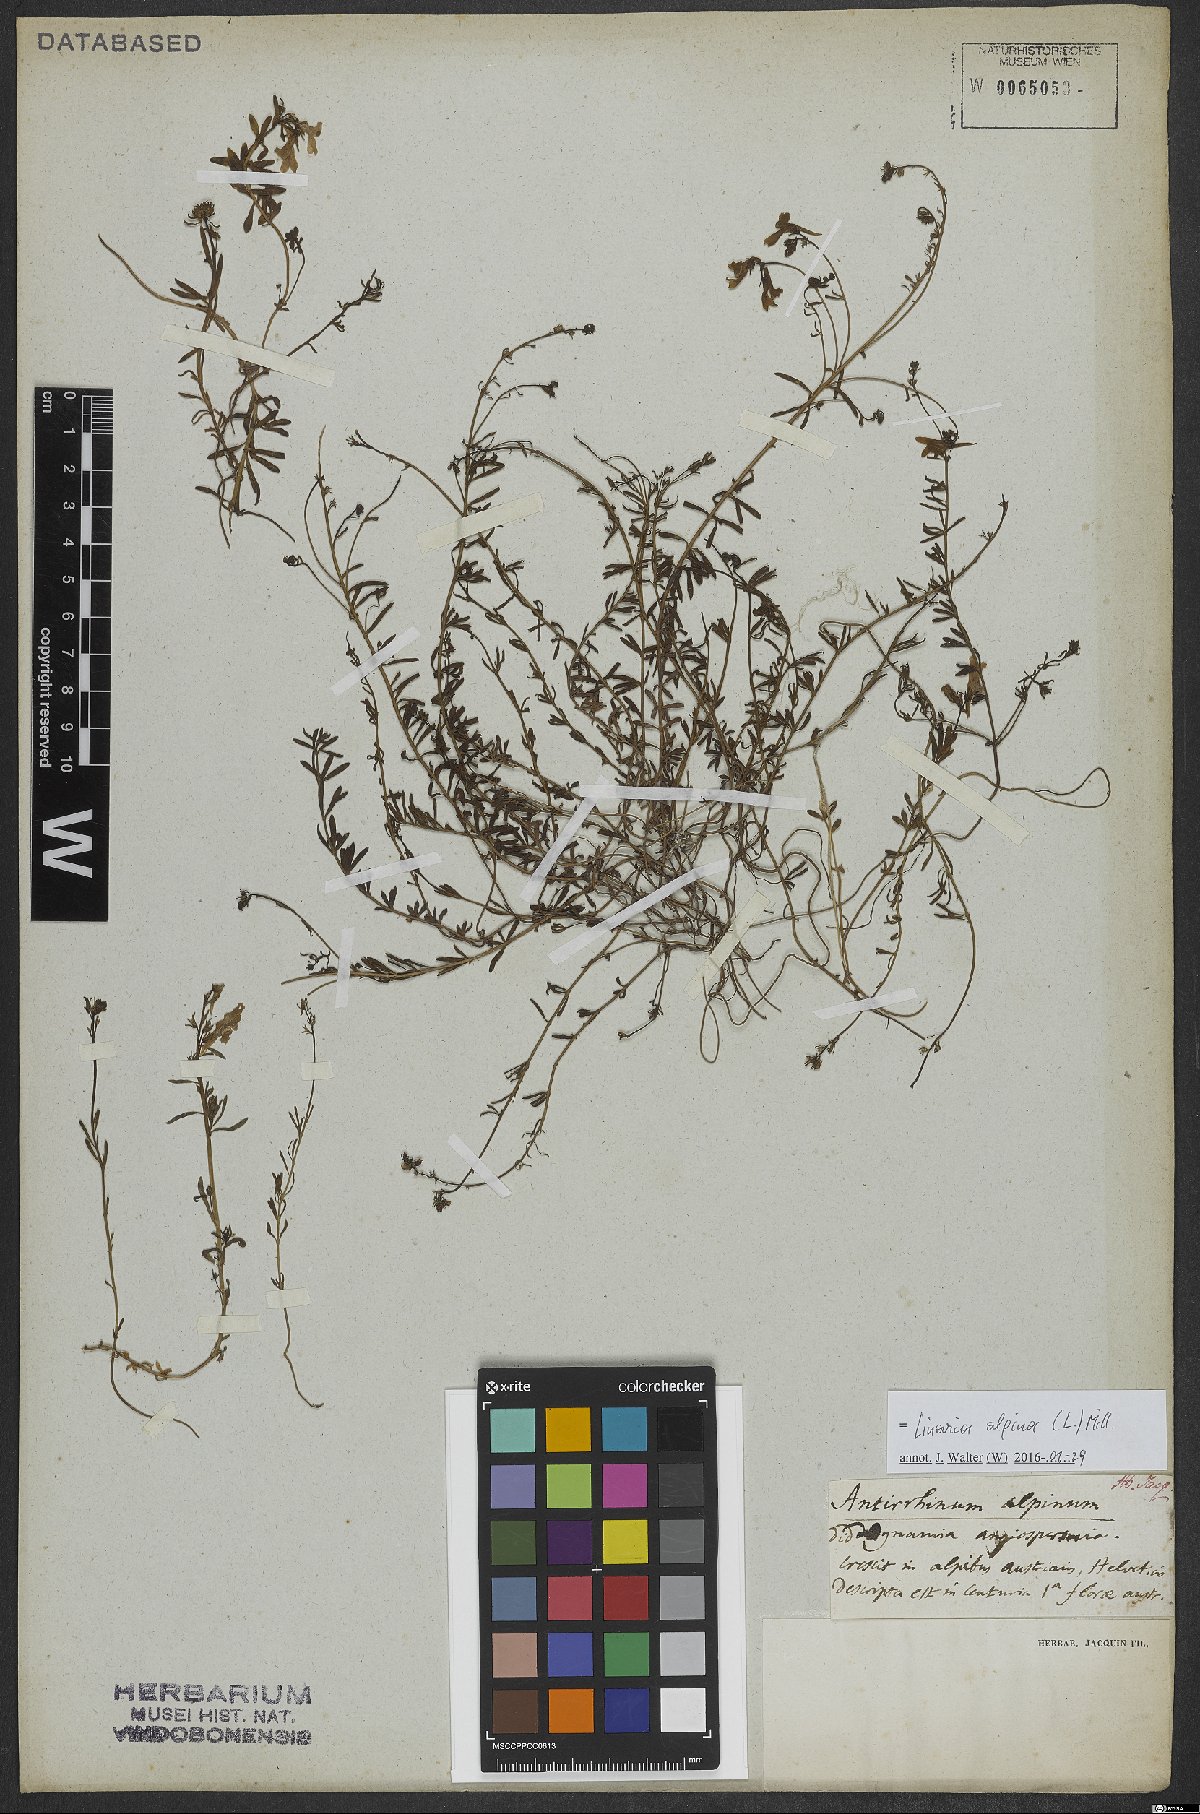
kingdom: Plantae
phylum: Tracheophyta
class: Magnoliopsida
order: Lamiales
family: Plantaginaceae
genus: Linaria
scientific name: Linaria alpina
